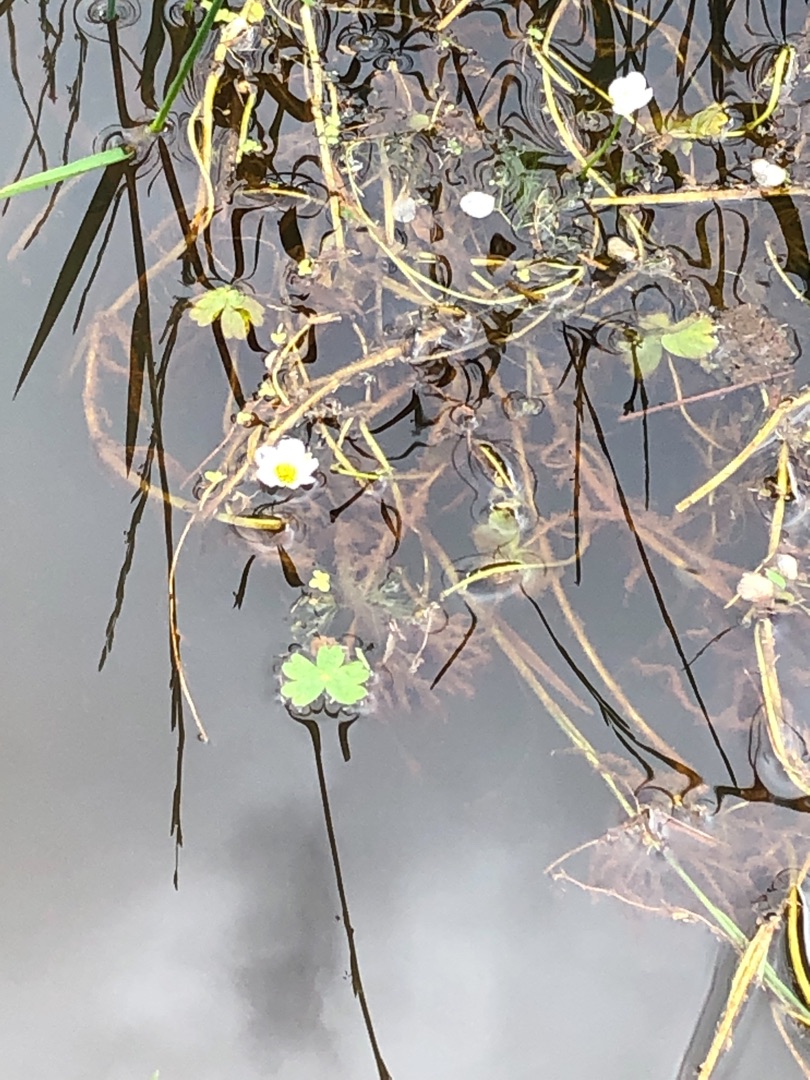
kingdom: Plantae
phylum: Tracheophyta
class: Magnoliopsida
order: Ranunculales
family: Ranunculaceae
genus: Ranunculus
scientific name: Ranunculus peltatus
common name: Storblomstret vandranunkel
